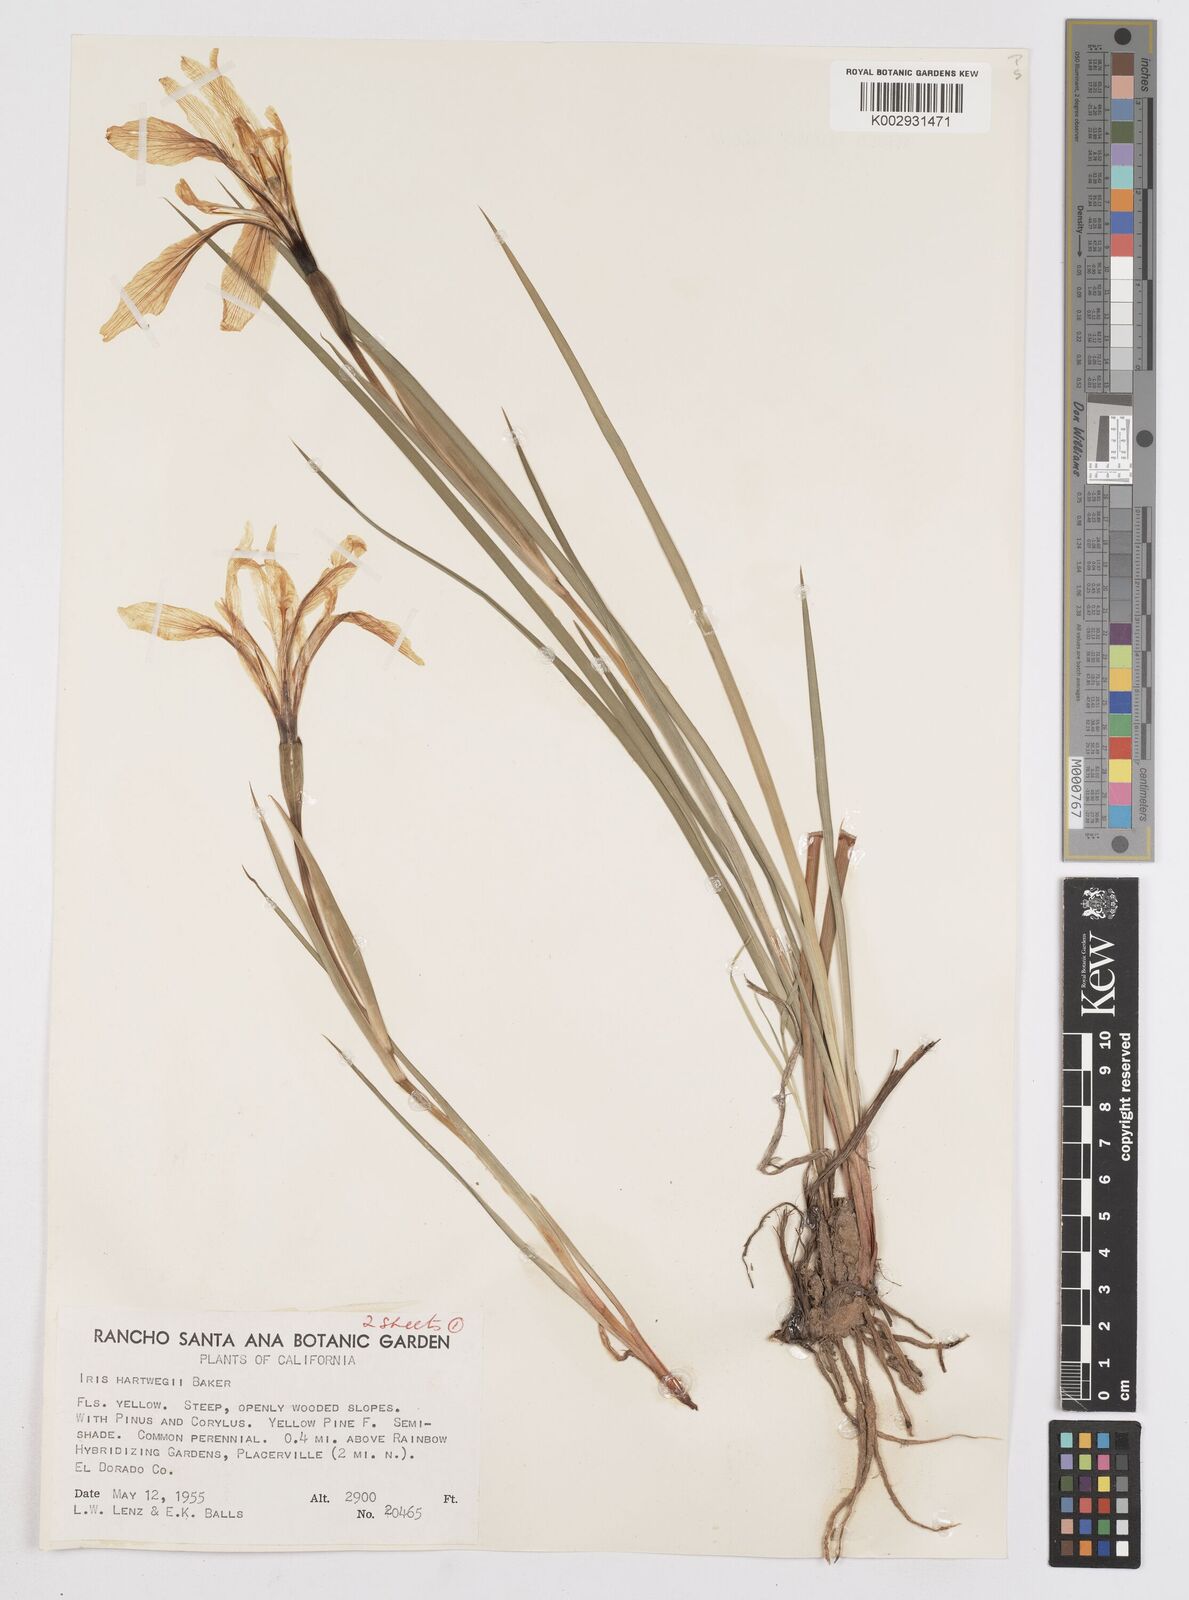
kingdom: Plantae
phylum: Tracheophyta
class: Liliopsida
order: Asparagales
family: Iridaceae
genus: Iris
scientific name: Iris hartwegii
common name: Sierra iris
